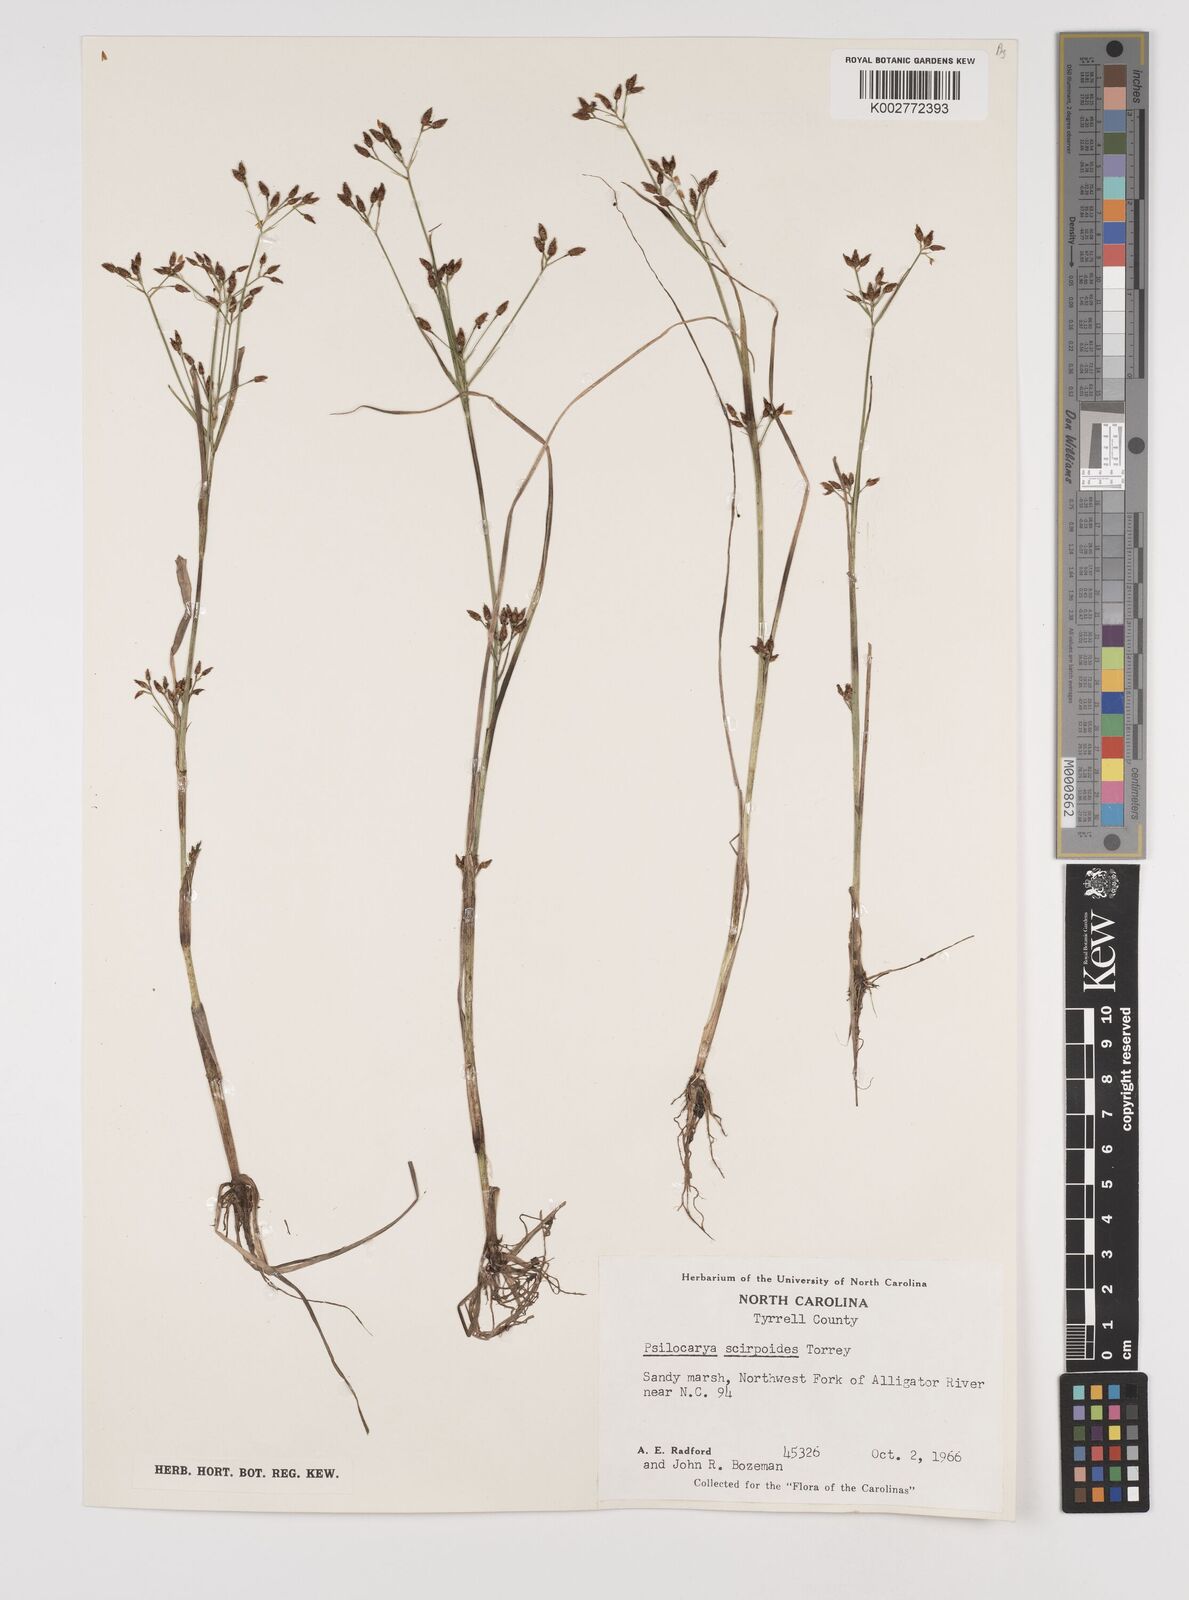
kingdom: Plantae
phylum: Tracheophyta
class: Liliopsida
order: Poales
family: Cyperaceae
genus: Rhynchospora
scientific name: Rhynchospora scirpoides
